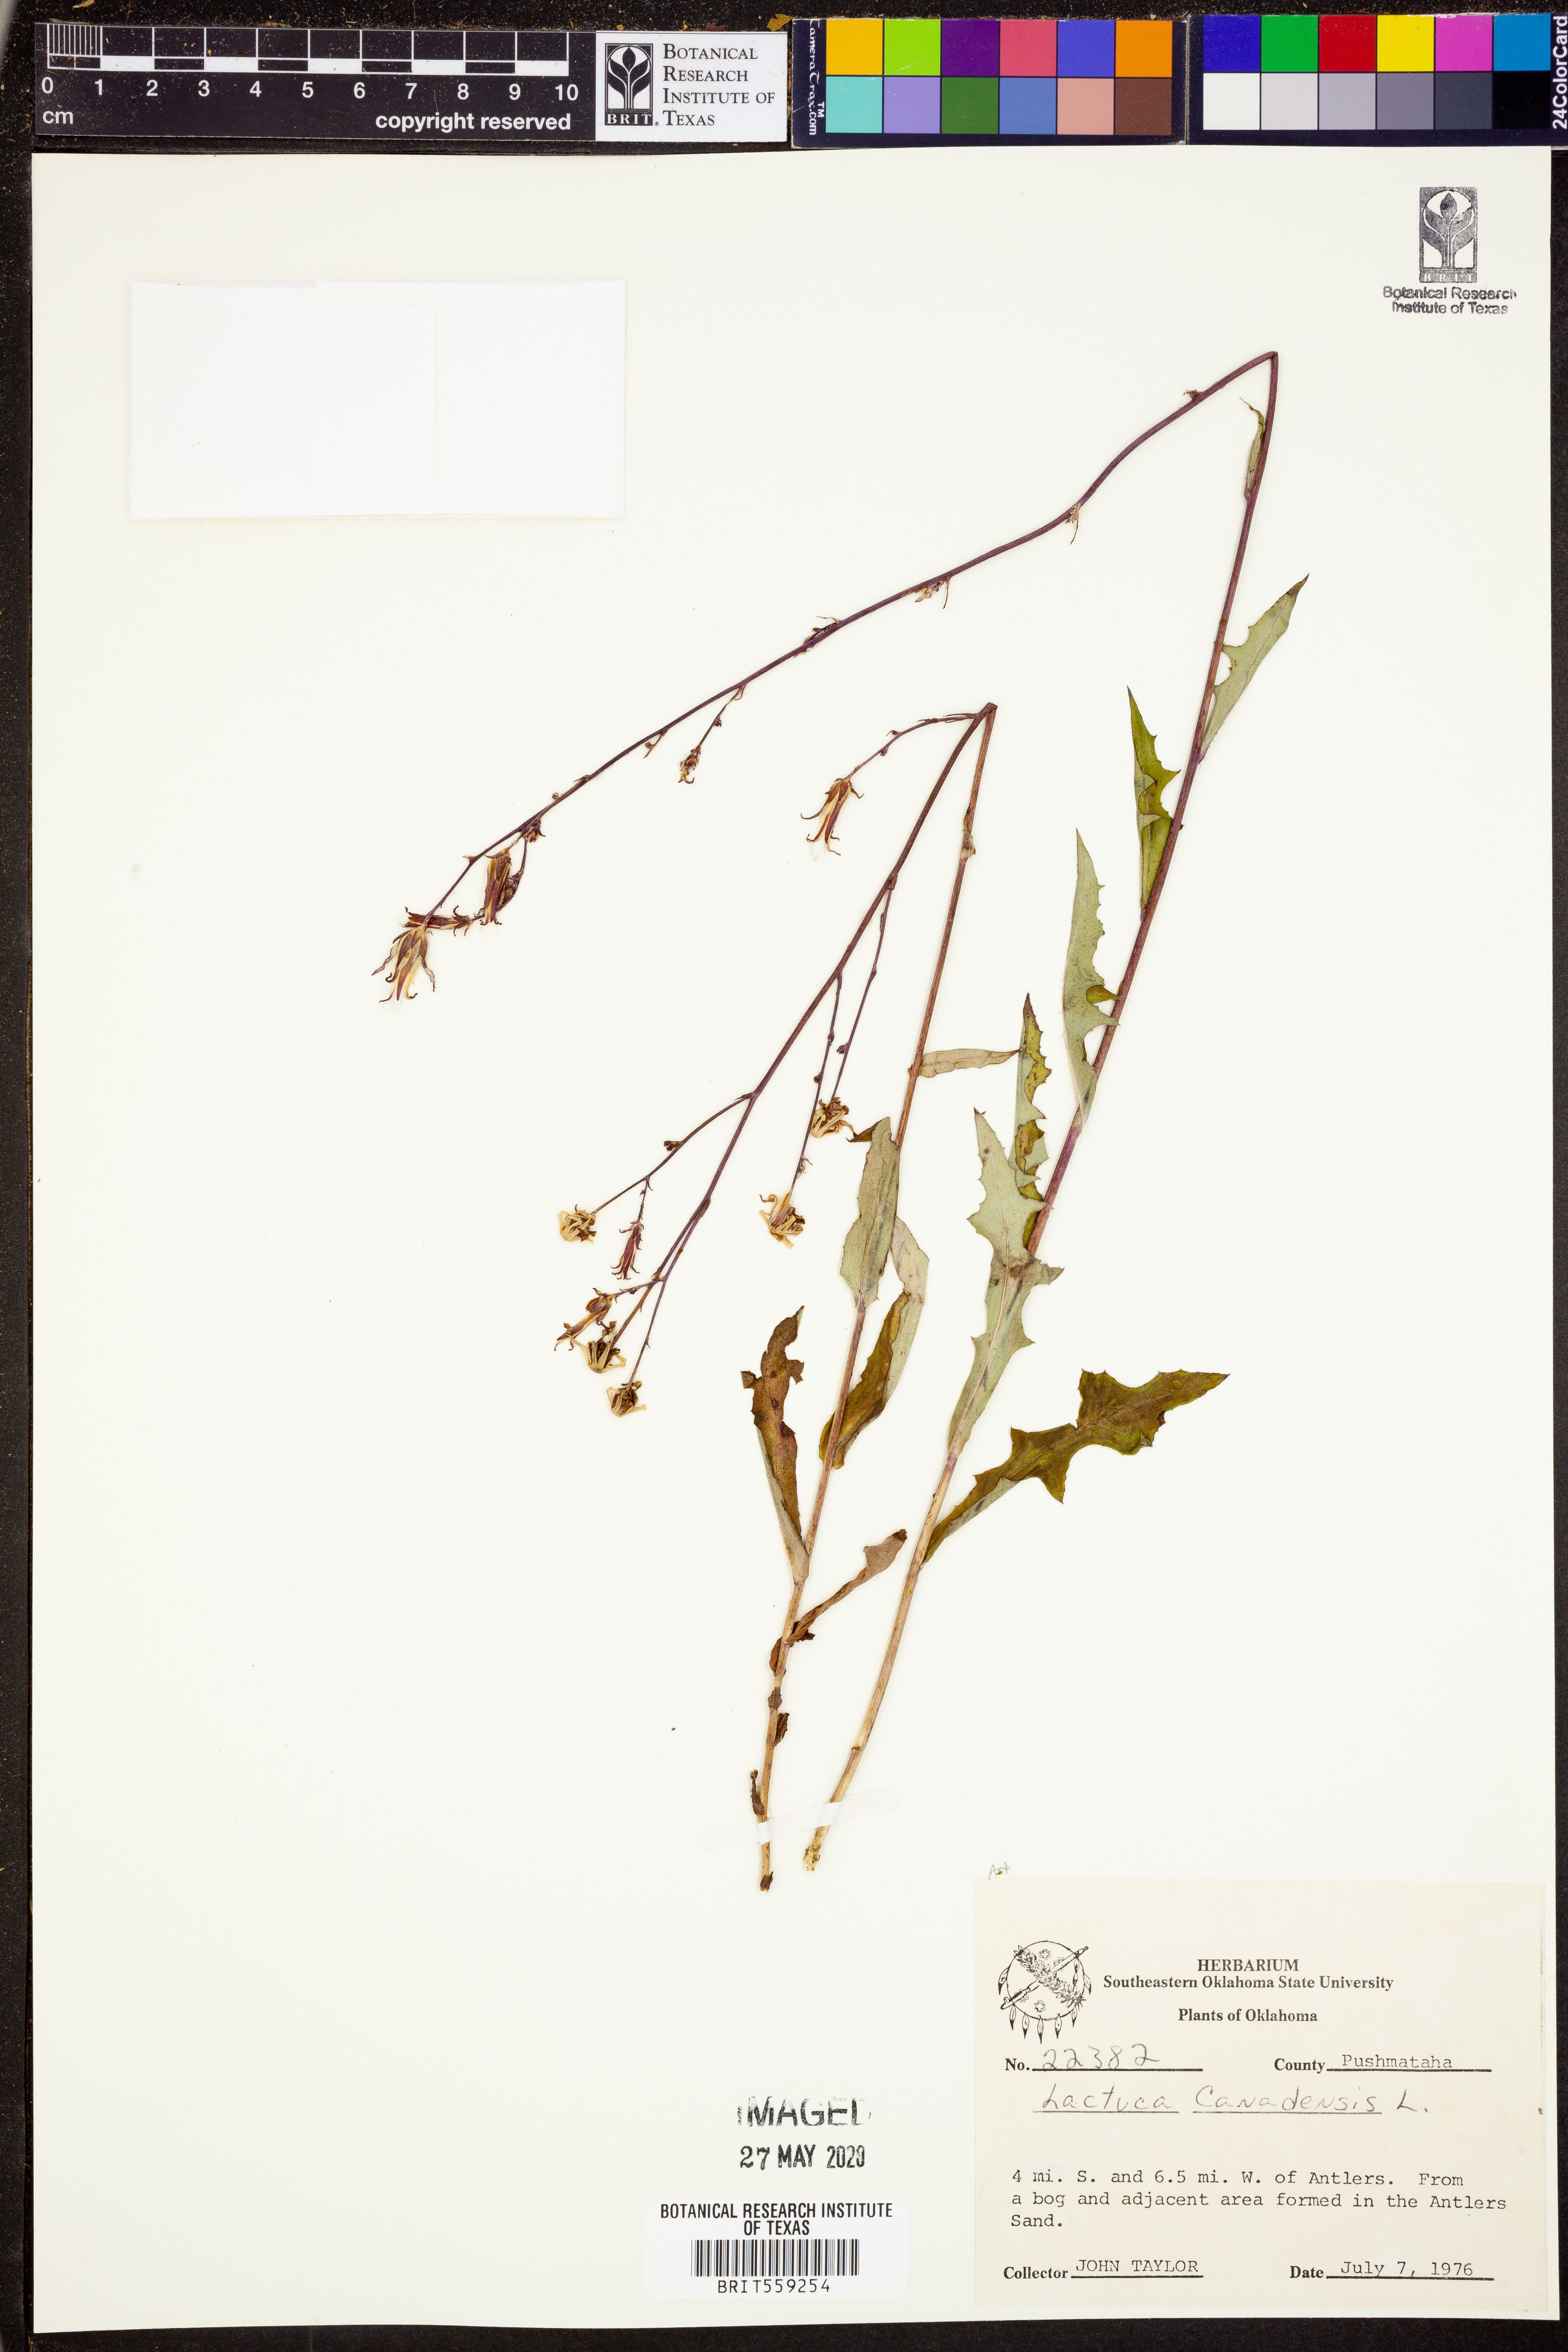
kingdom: Plantae
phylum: Tracheophyta
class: Magnoliopsida
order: Asterales
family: Asteraceae
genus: Lactuca
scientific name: Lactuca canadensis
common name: Canada lettuce
